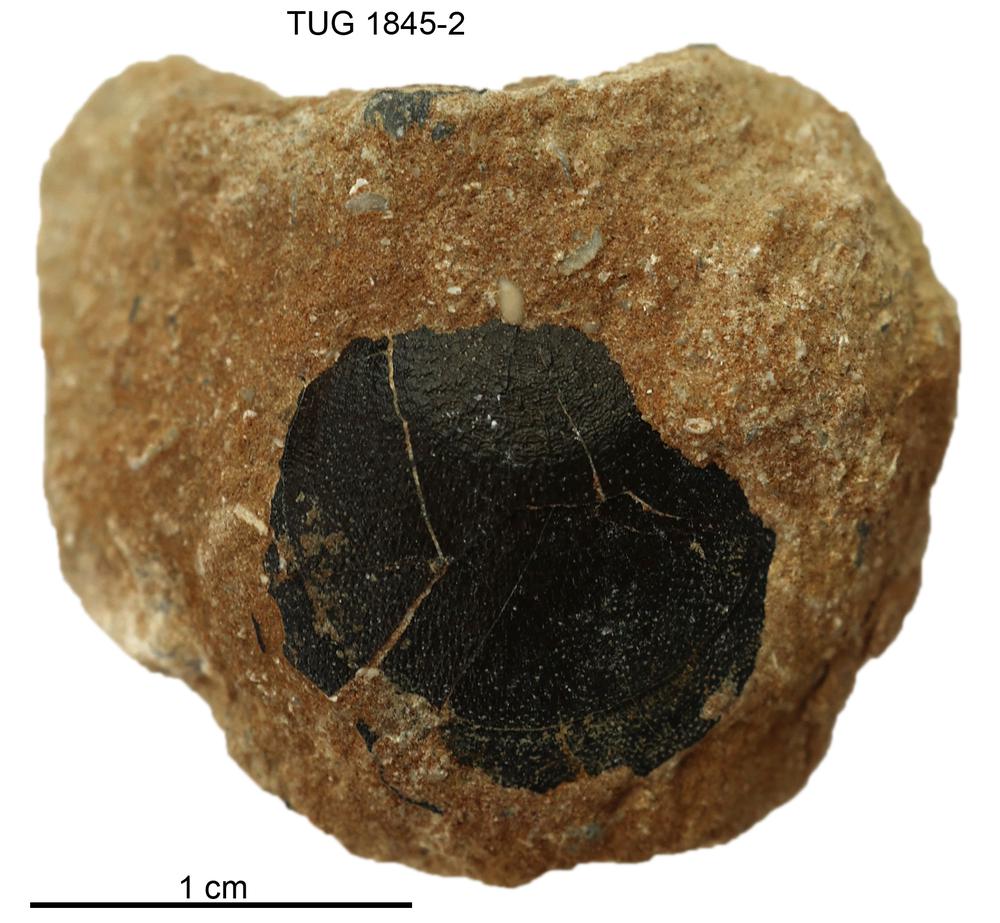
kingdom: Animalia
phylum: Brachiopoda
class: Lingulata
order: Siphonotretida
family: Siphonotretidae
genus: Siphonotreta
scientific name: Siphonotreta
